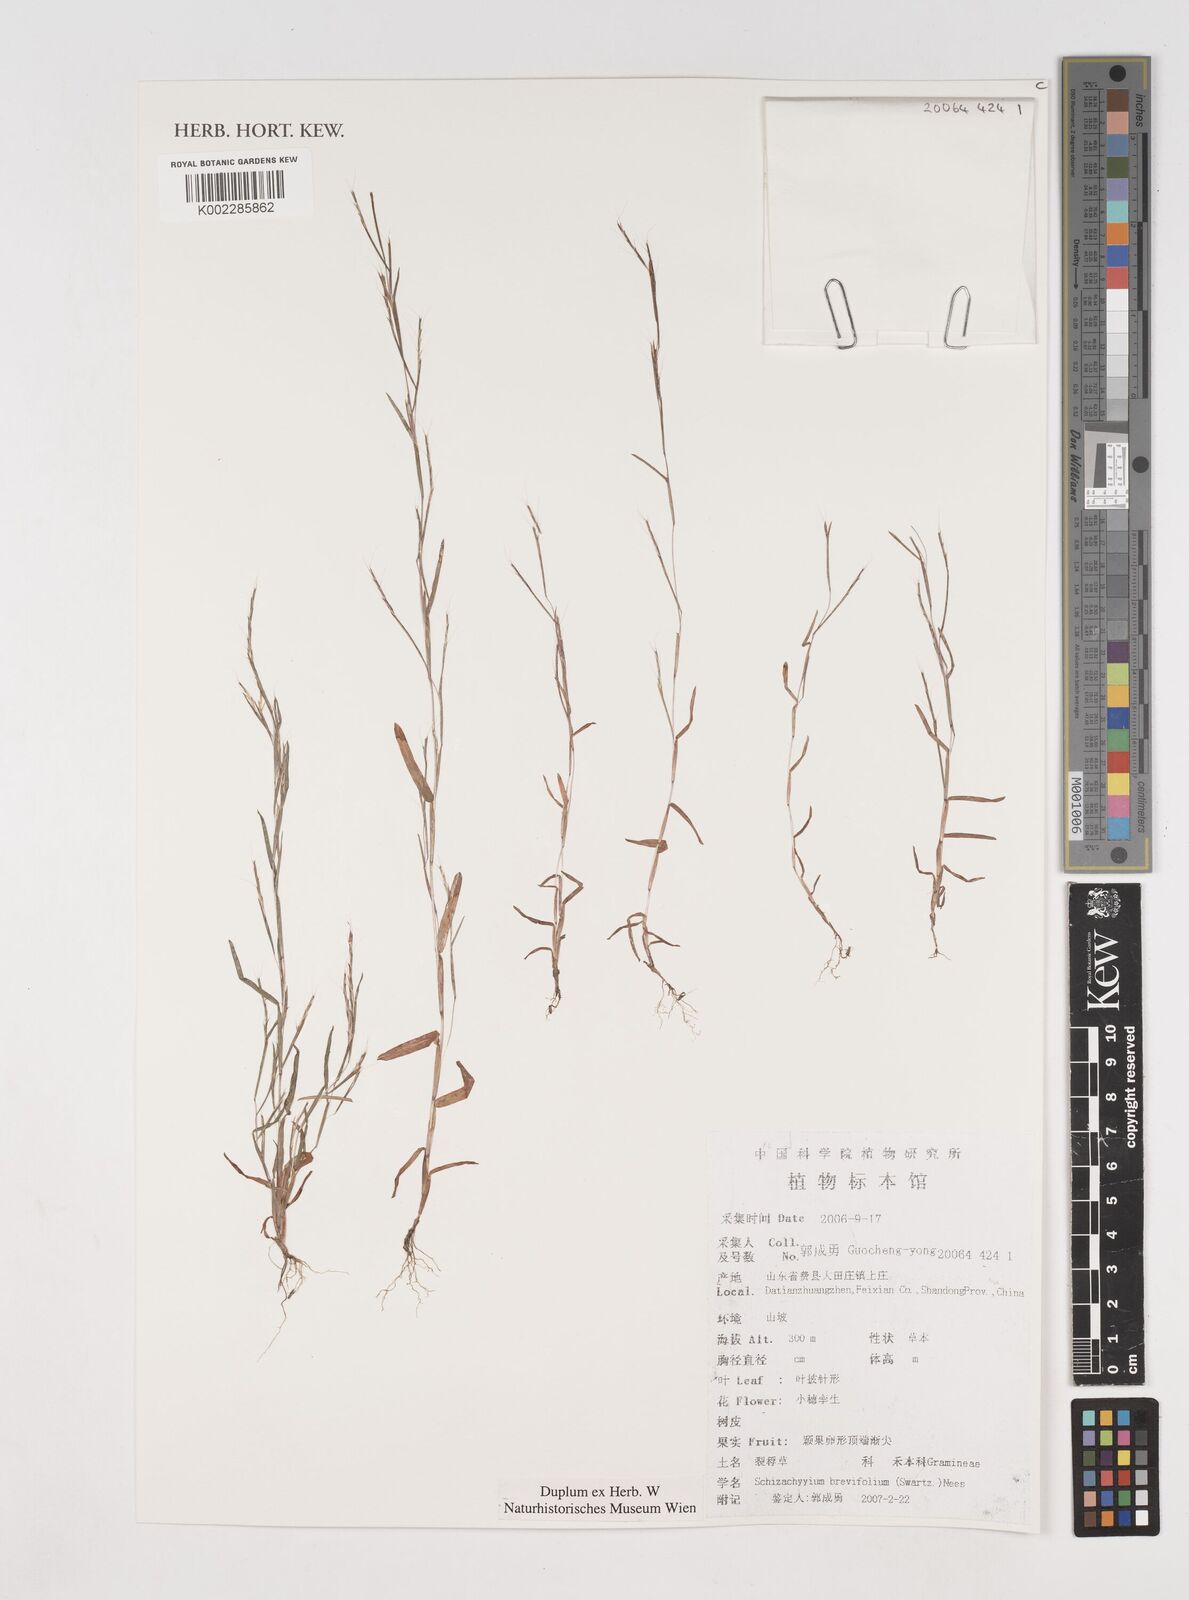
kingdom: Plantae
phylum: Tracheophyta
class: Liliopsida
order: Poales
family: Poaceae
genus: Schizachyrium
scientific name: Schizachyrium brevifolium
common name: Serillo dulce
